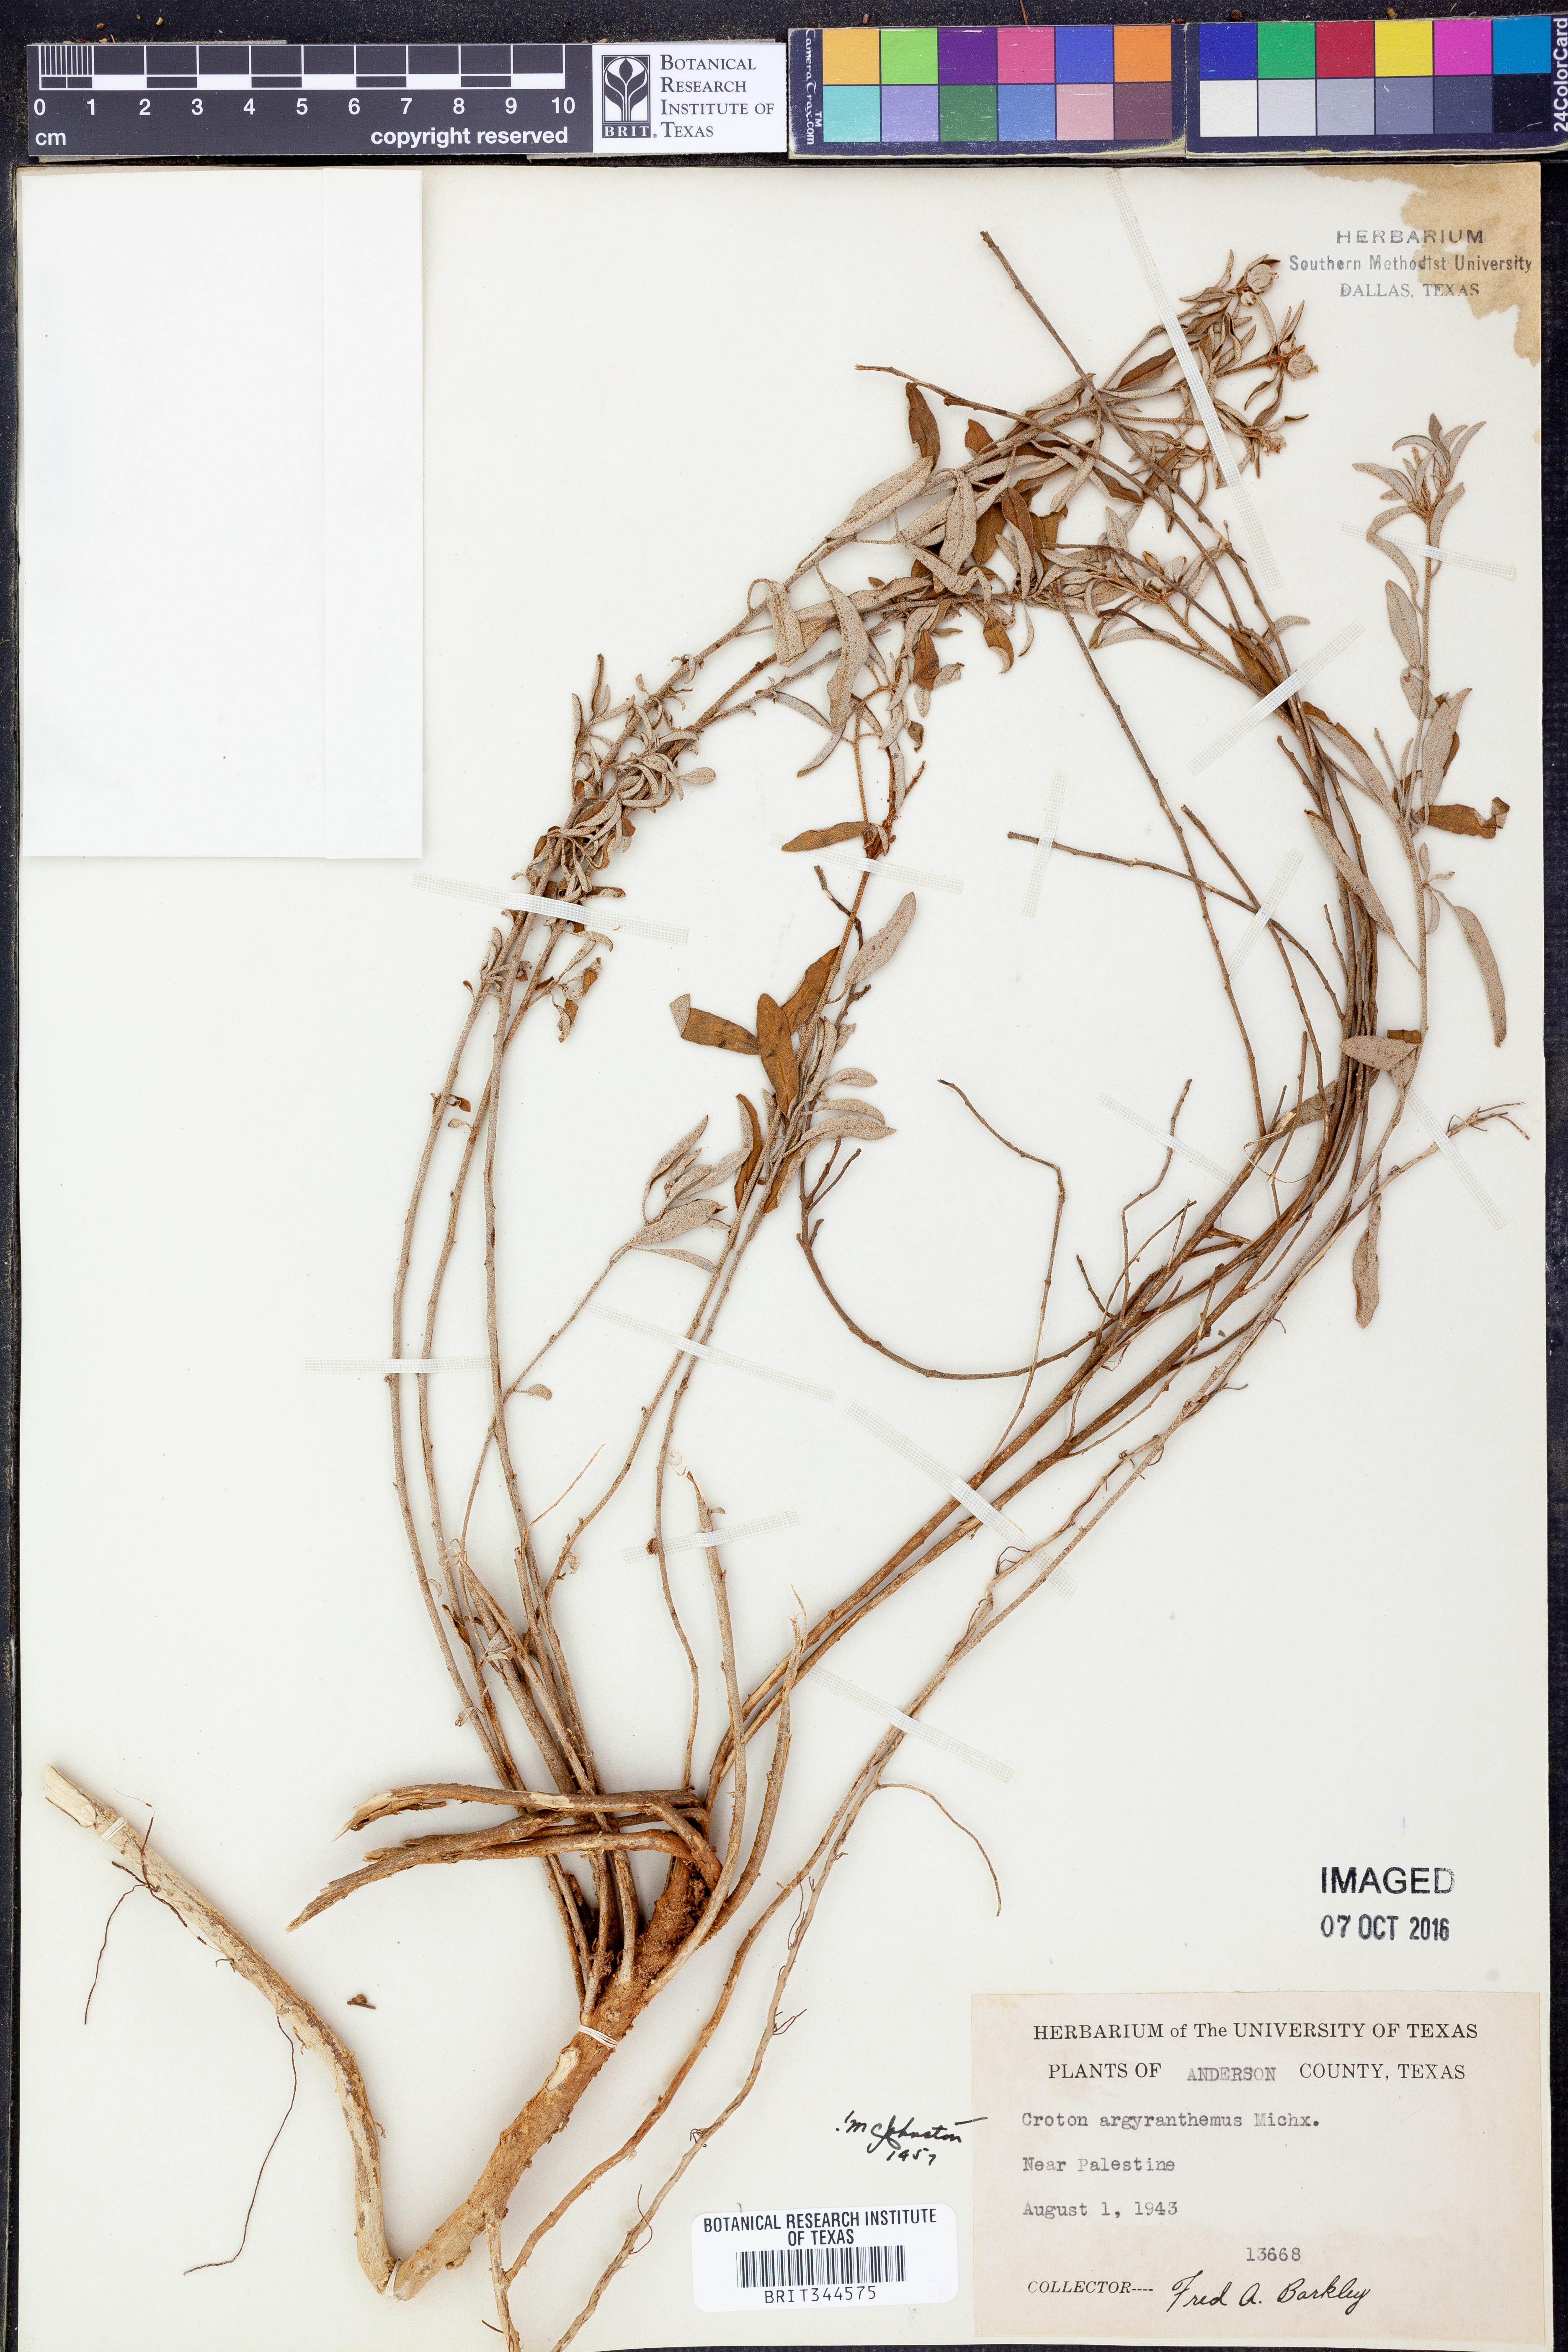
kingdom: Plantae
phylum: Tracheophyta
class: Magnoliopsida
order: Malpighiales
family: Euphorbiaceae
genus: Croton
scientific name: Croton argyranthemus
